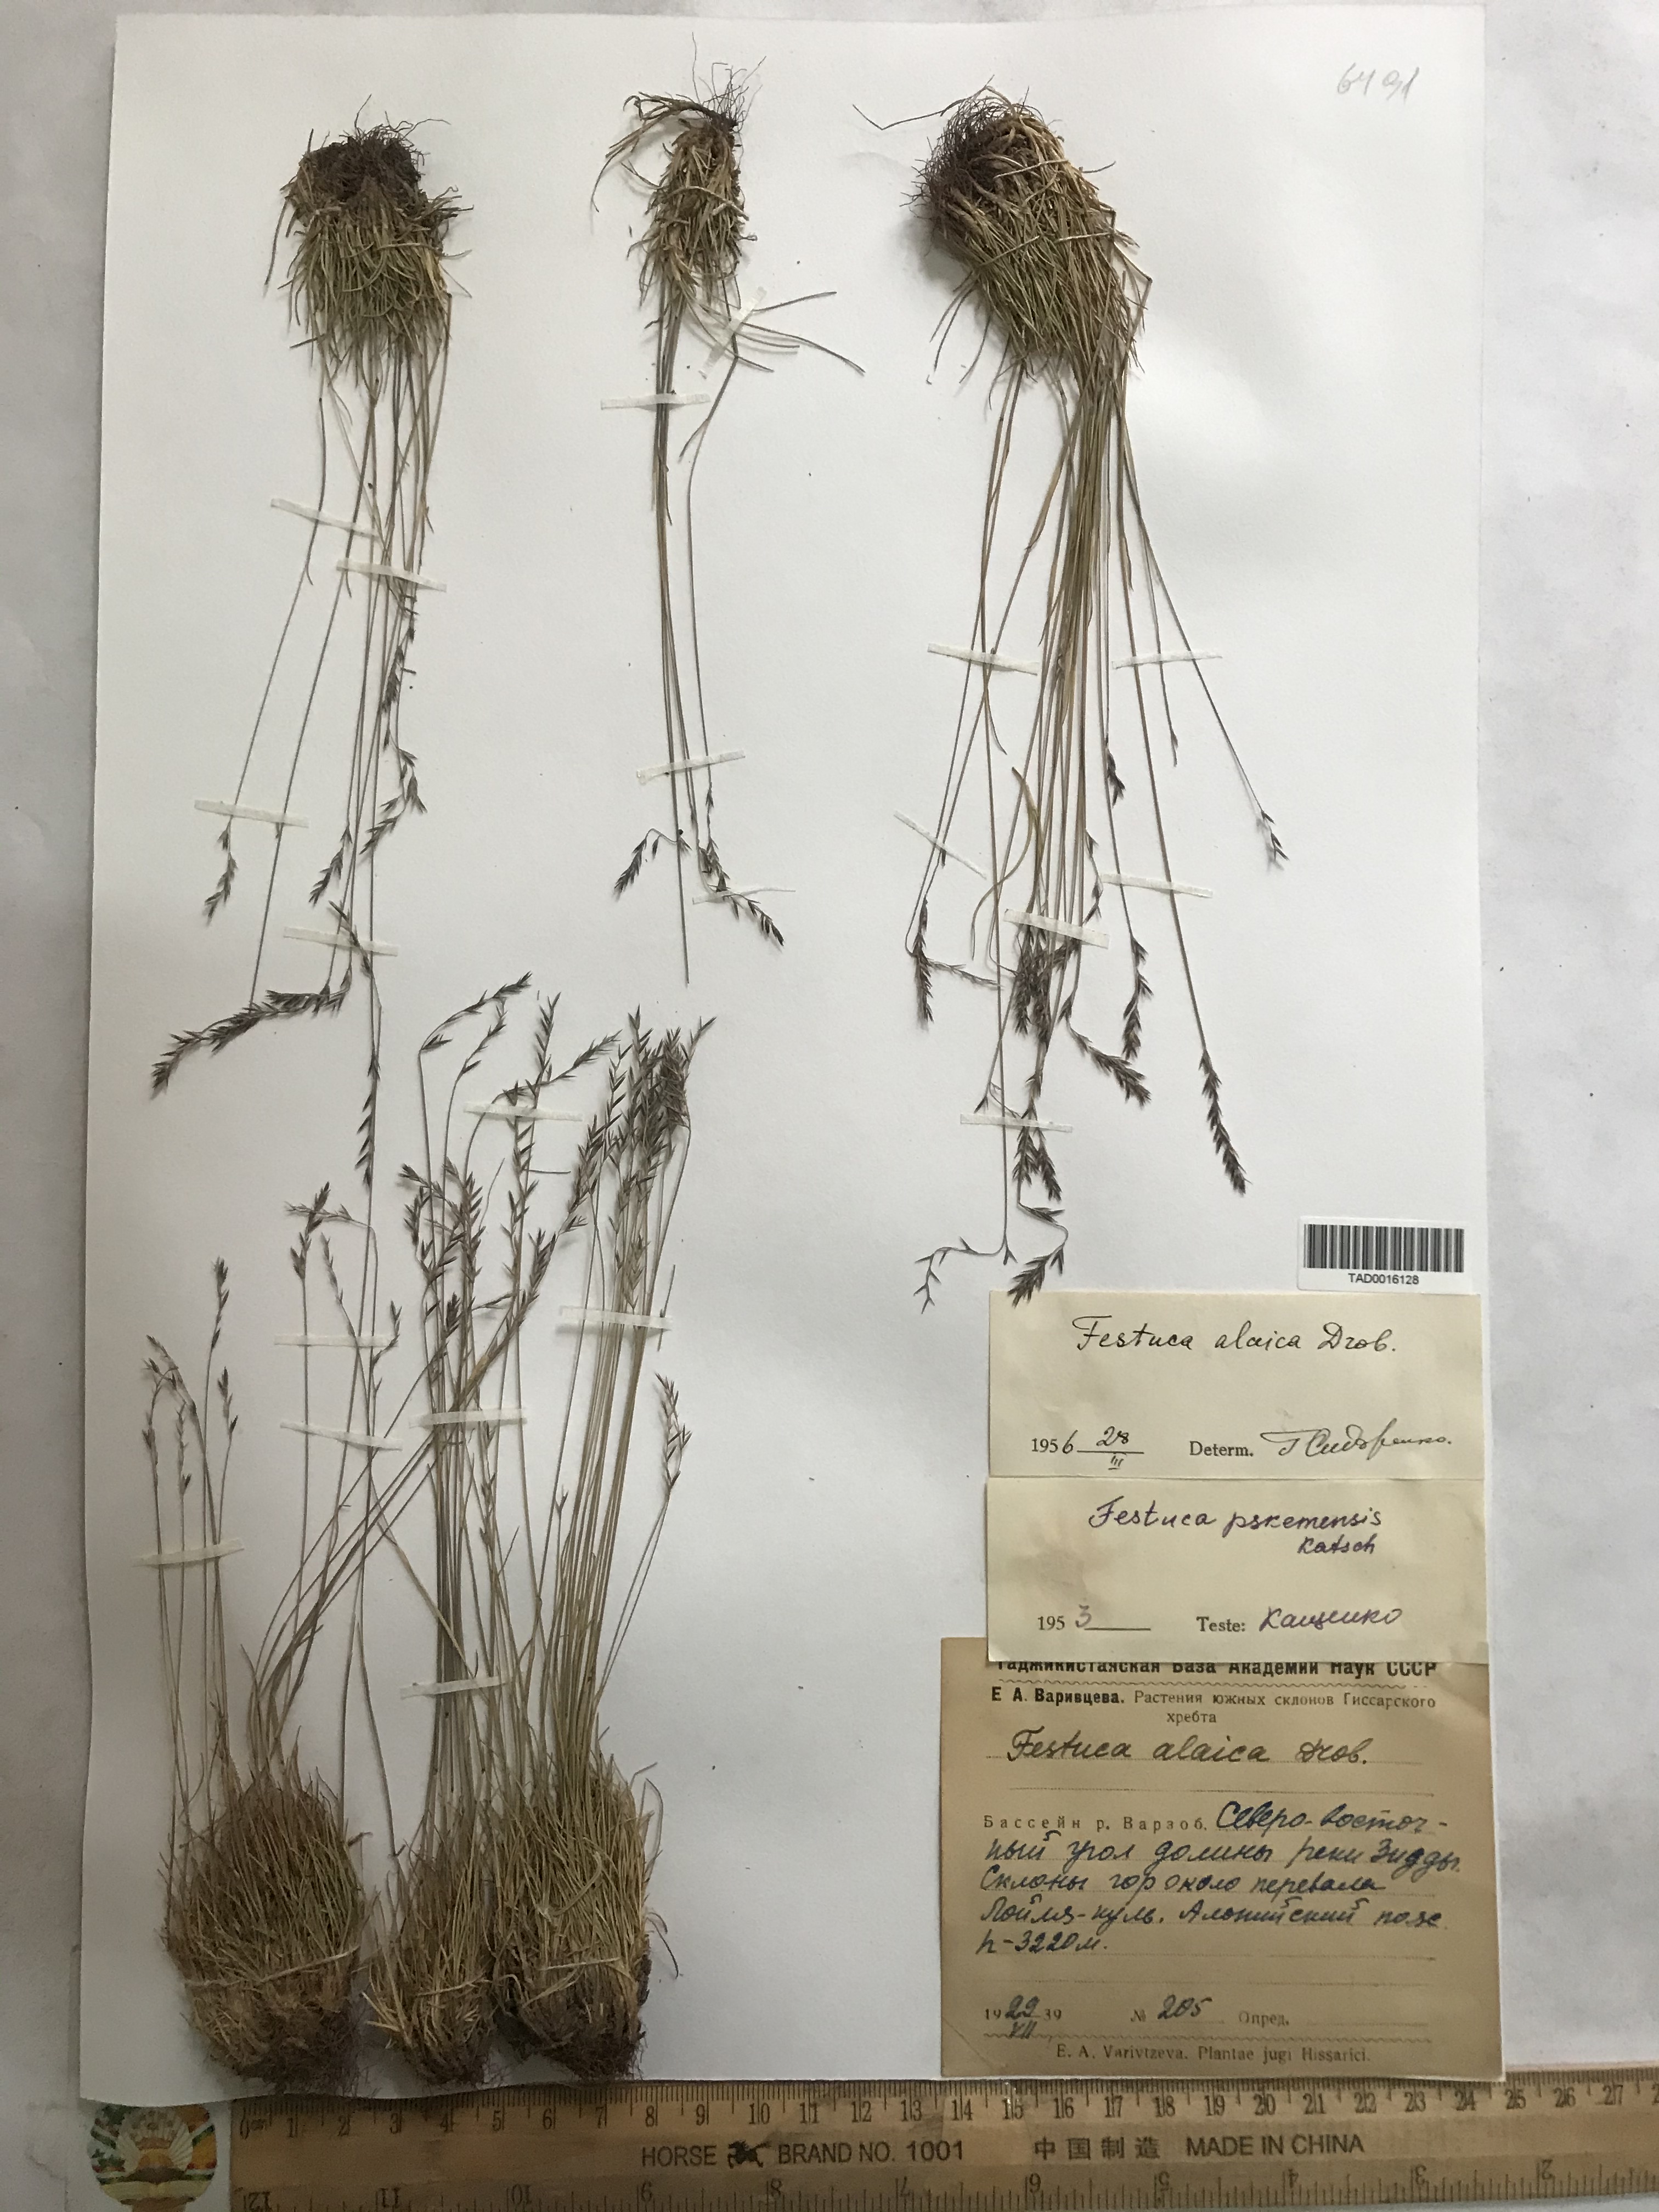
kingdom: Plantae
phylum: Tracheophyta
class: Liliopsida
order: Poales
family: Poaceae
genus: Festuca
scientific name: Festuca alaica
